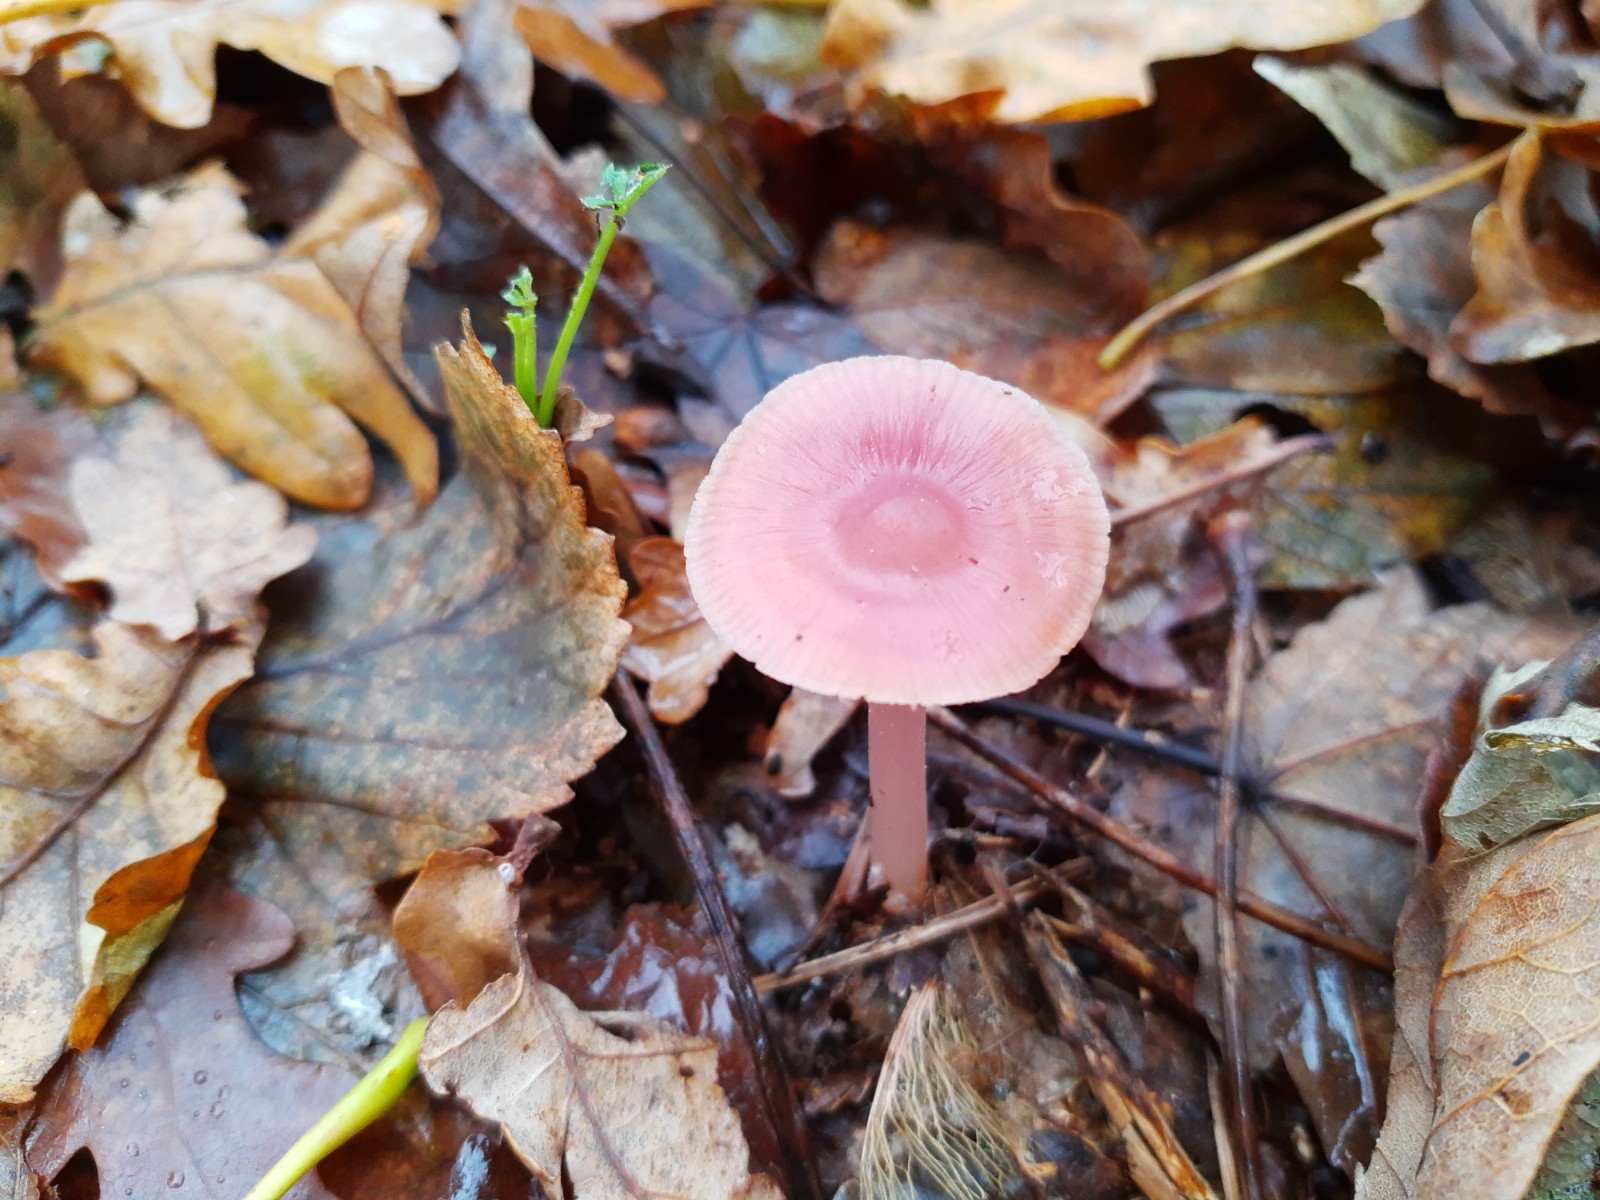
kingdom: Fungi
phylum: Basidiomycota
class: Agaricomycetes
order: Agaricales
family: Mycenaceae
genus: Mycena
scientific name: Mycena rosea
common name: rosa huesvamp
